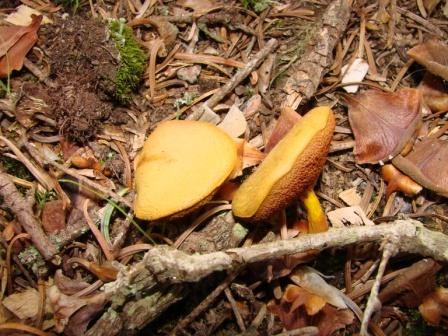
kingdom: Fungi
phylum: Basidiomycota
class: Agaricomycetes
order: Boletales
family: Boletaceae
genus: Chalciporus
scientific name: Chalciporus piperatus
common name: peberrørhat
